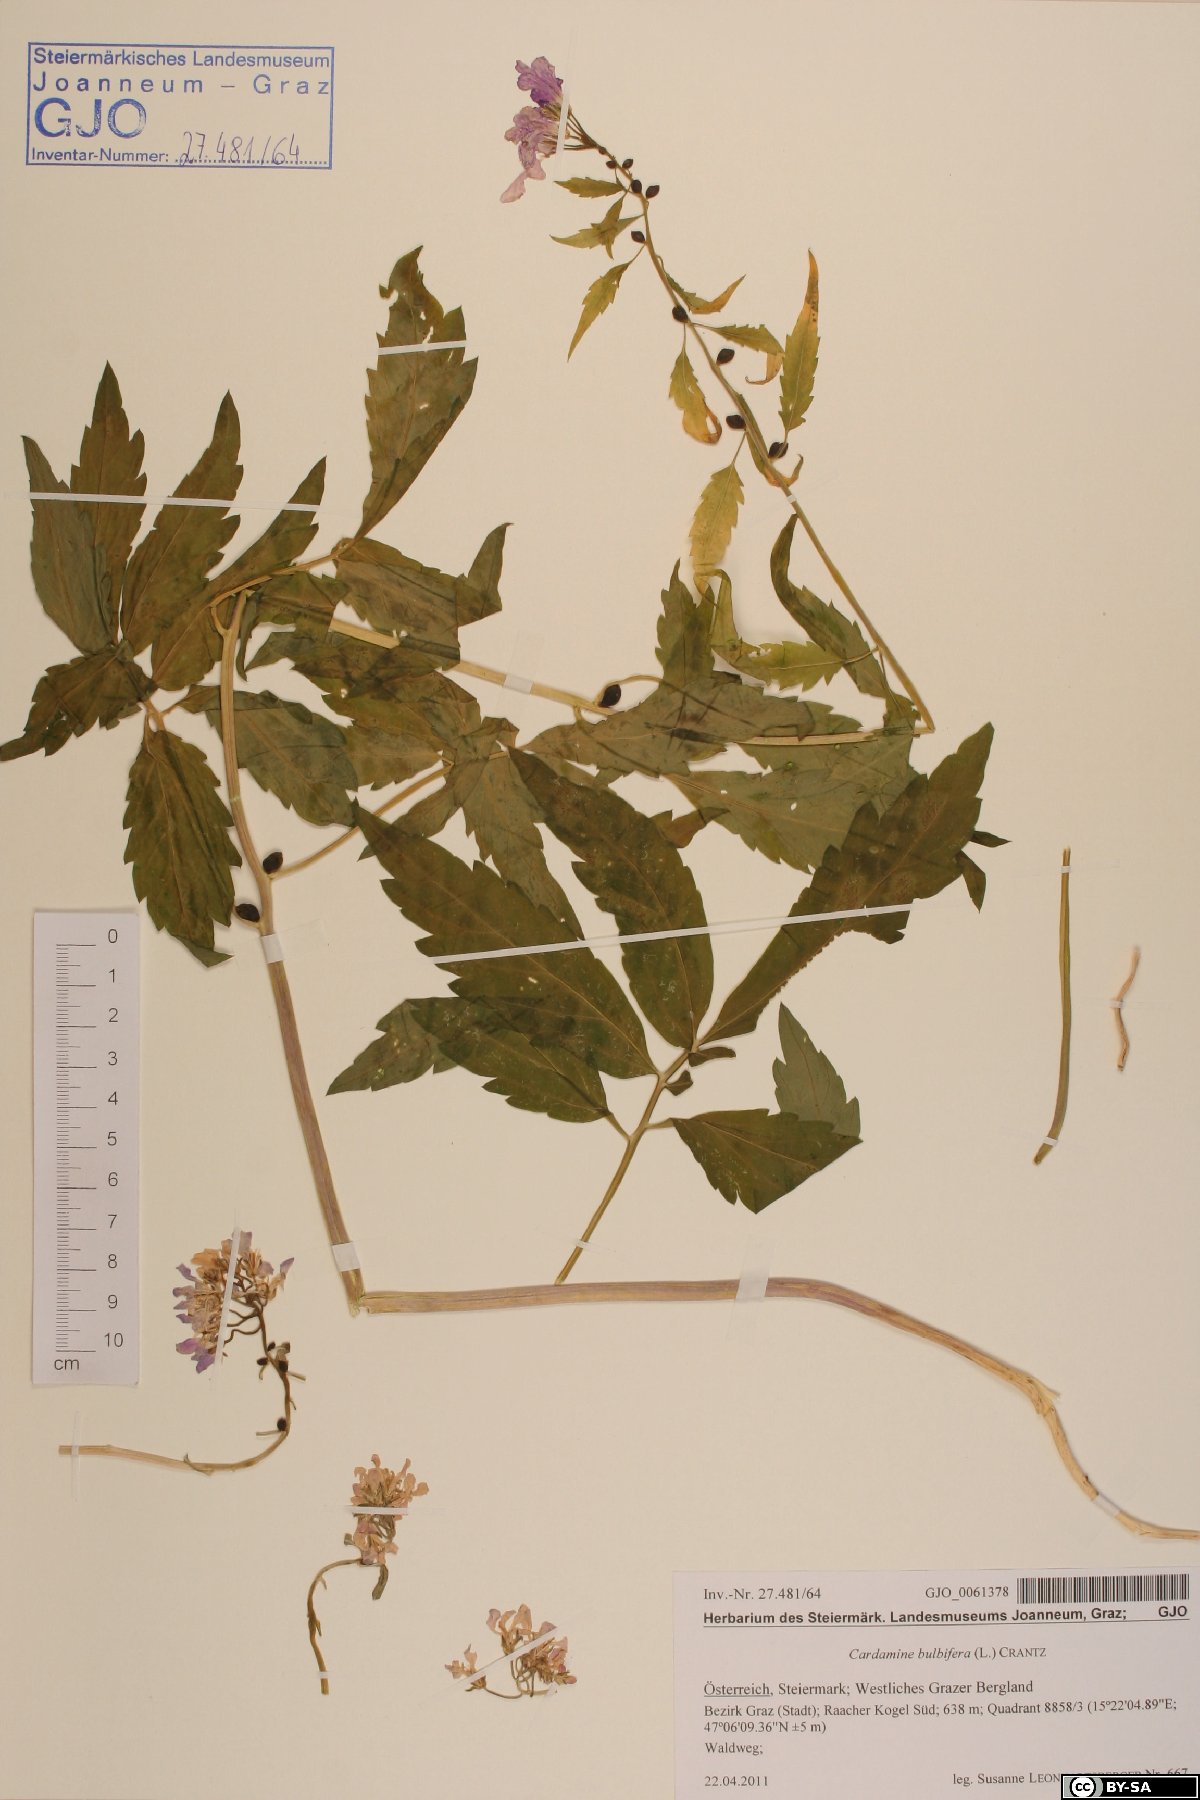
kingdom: Plantae
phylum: Tracheophyta
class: Magnoliopsida
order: Brassicales
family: Brassicaceae
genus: Cardamine
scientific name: Cardamine bulbifera
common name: Coralroot bittercress
